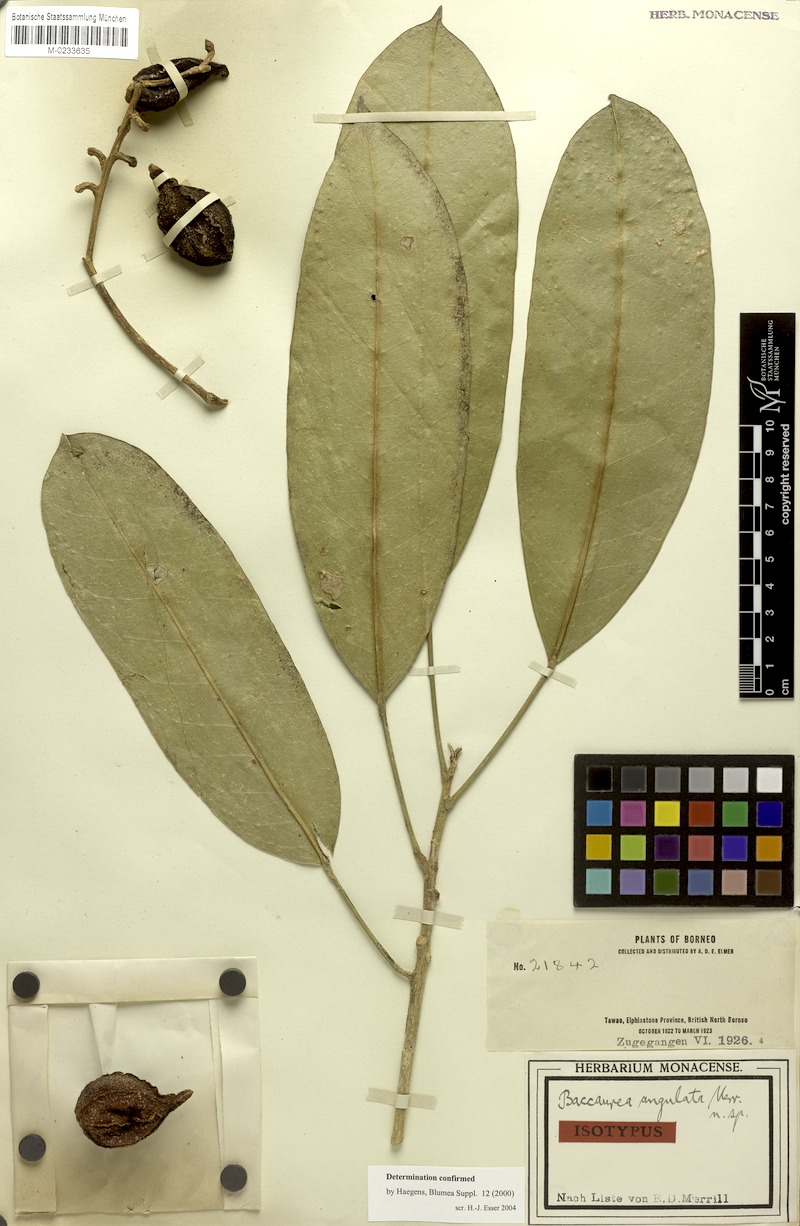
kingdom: Plantae
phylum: Tracheophyta
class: Magnoliopsida
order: Malpighiales
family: Phyllanthaceae
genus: Baccaurea
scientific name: Baccaurea angulata
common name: Red angle tampoi
